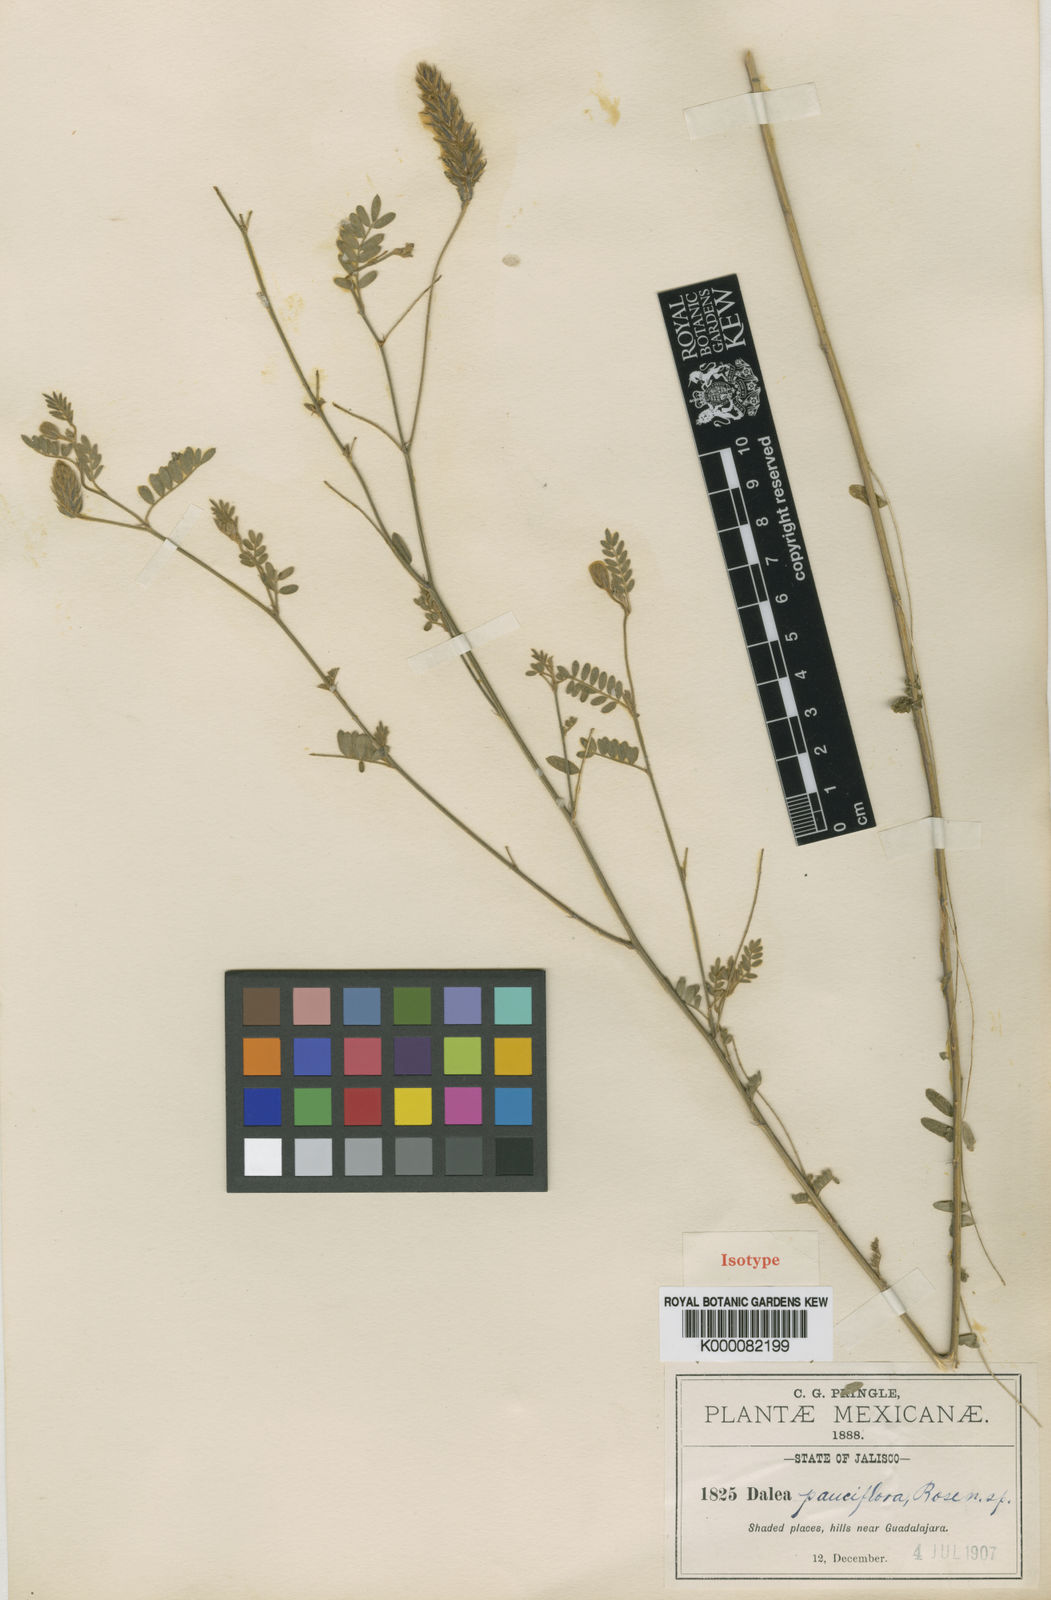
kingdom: Plantae
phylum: Tracheophyta
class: Magnoliopsida
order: Fabales
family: Fabaceae
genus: Dalea
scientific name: Dalea elata
